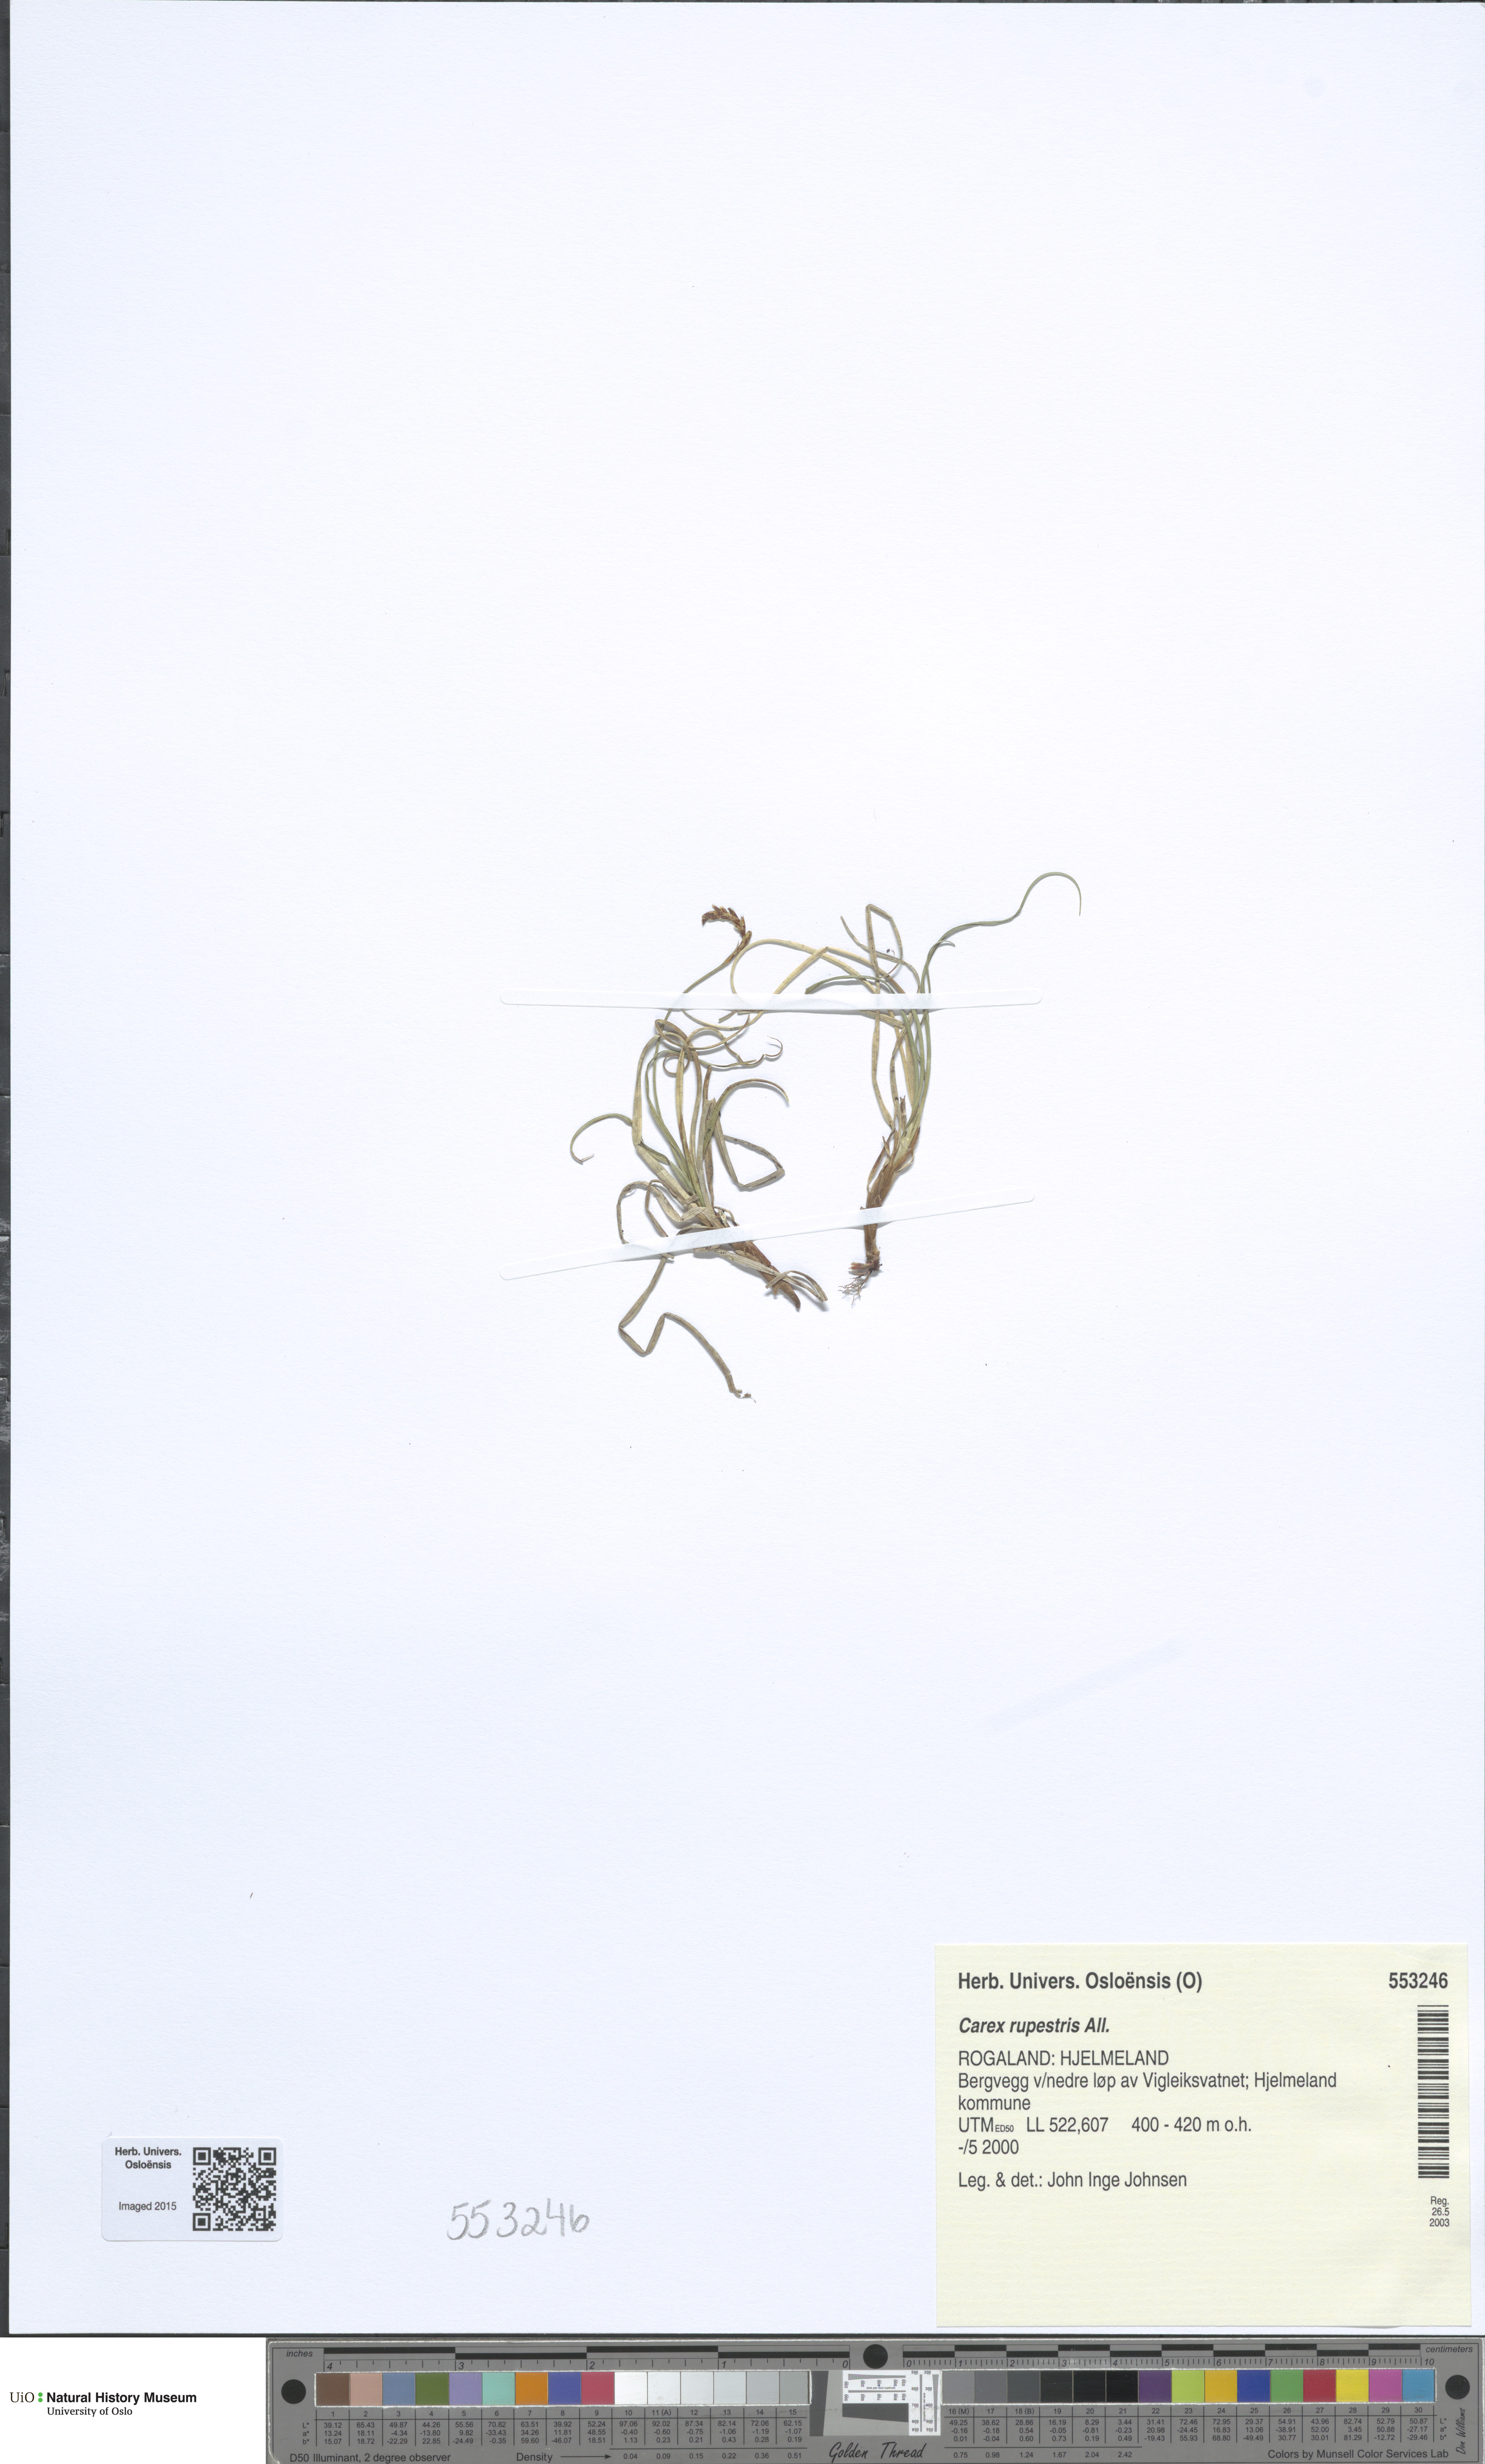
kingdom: Plantae
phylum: Tracheophyta
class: Liliopsida
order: Poales
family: Cyperaceae
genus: Carex
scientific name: Carex rupestris
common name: Rock sedge
